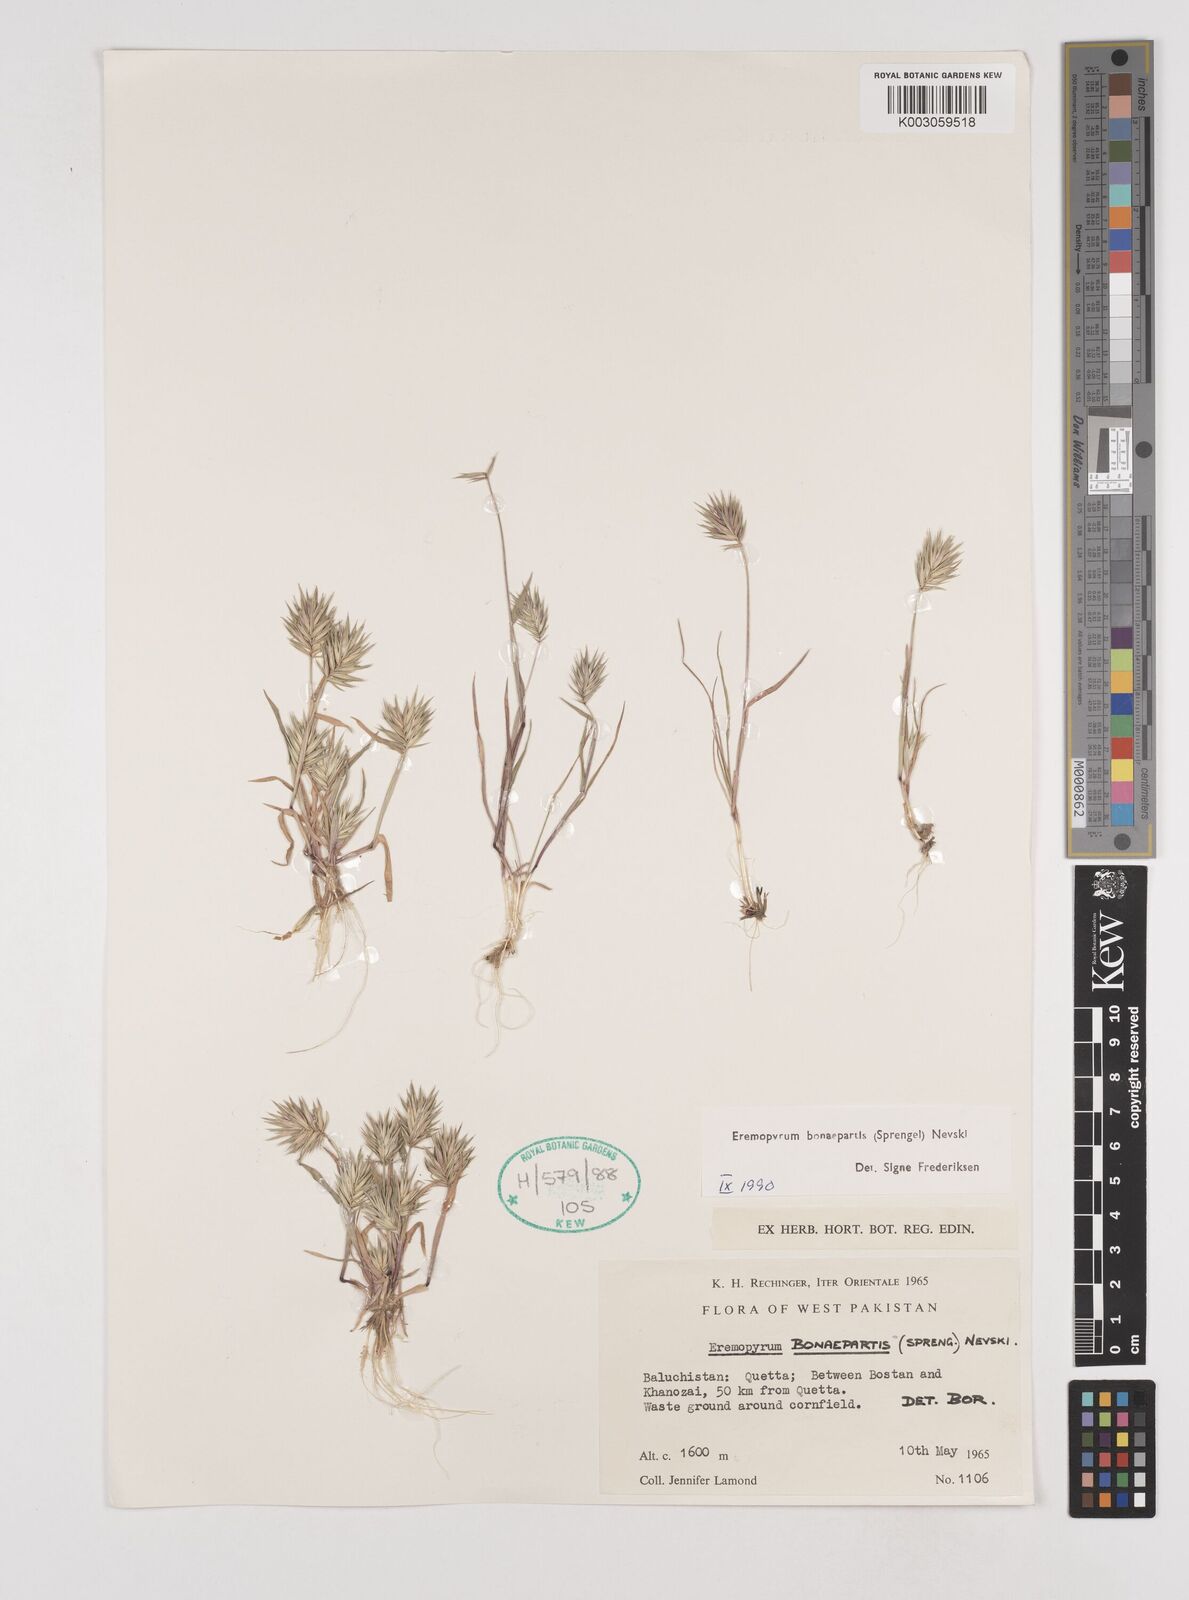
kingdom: Plantae
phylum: Tracheophyta
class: Liliopsida
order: Poales
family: Poaceae
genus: Eremopyrum
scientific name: Eremopyrum bonaepartis
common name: Tapertip false wheatgrass
